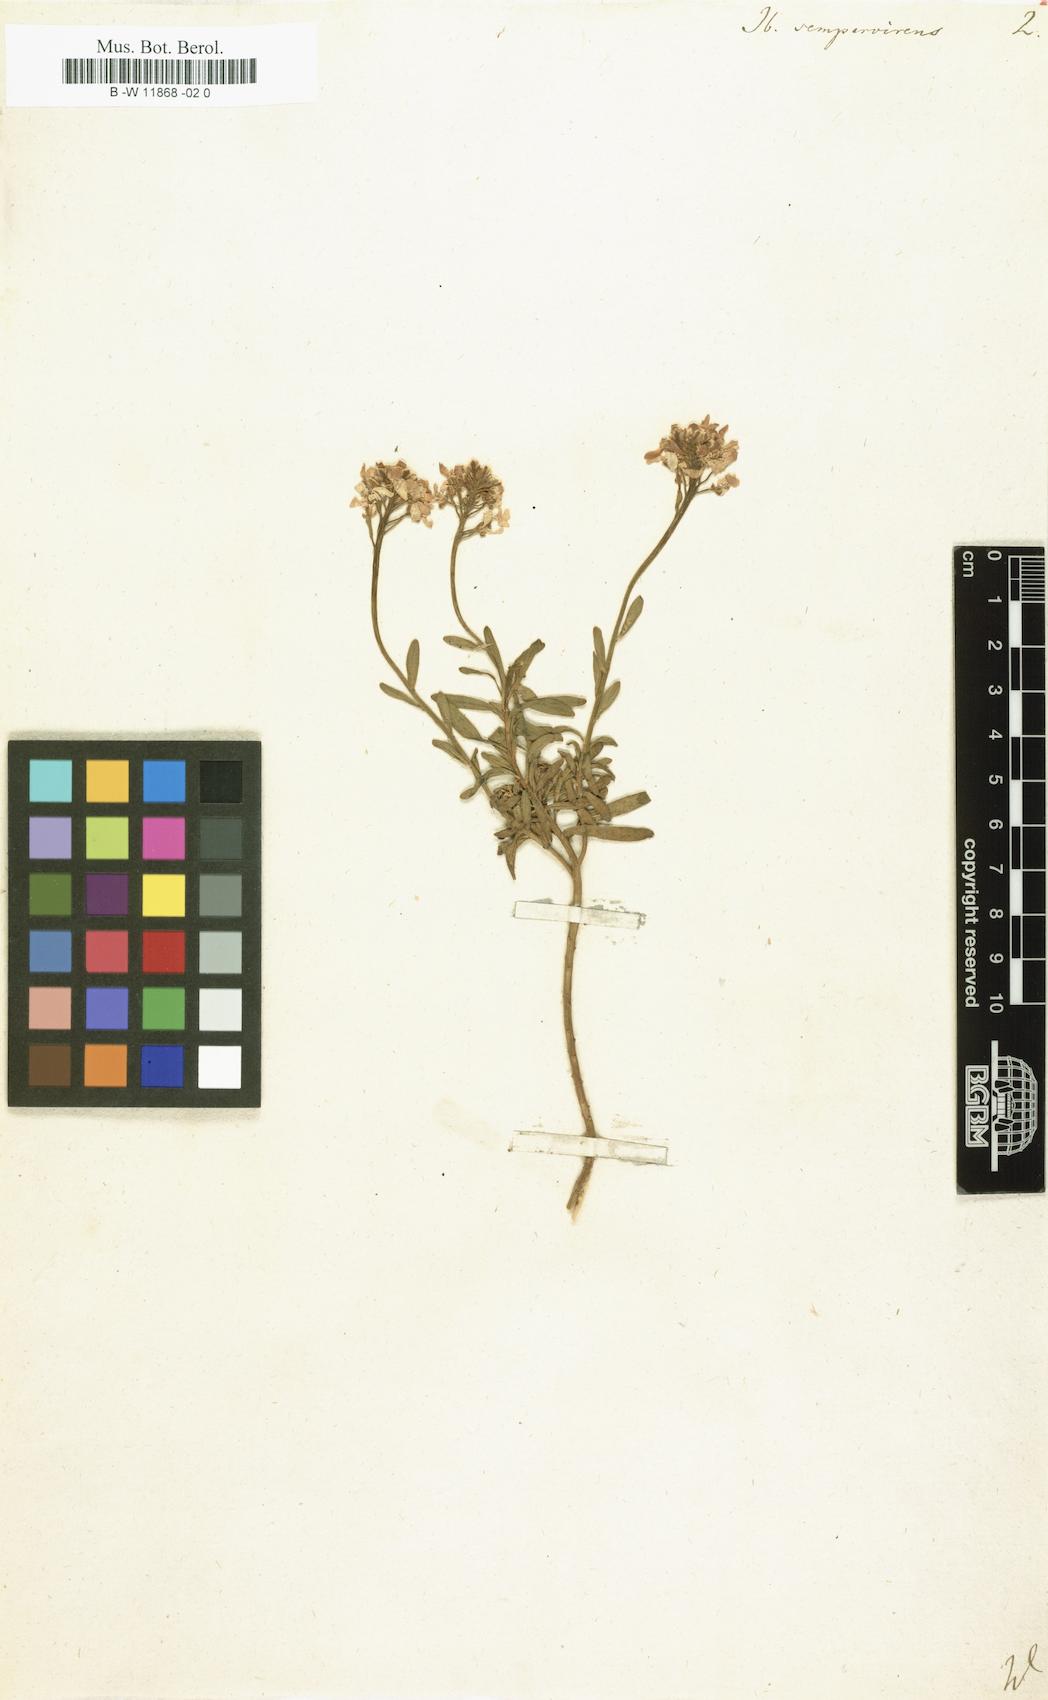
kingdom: Plantae
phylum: Tracheophyta
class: Magnoliopsida
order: Brassicales
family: Brassicaceae
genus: Iberis
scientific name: Iberis sempervirens
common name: Evergreen candytuft
